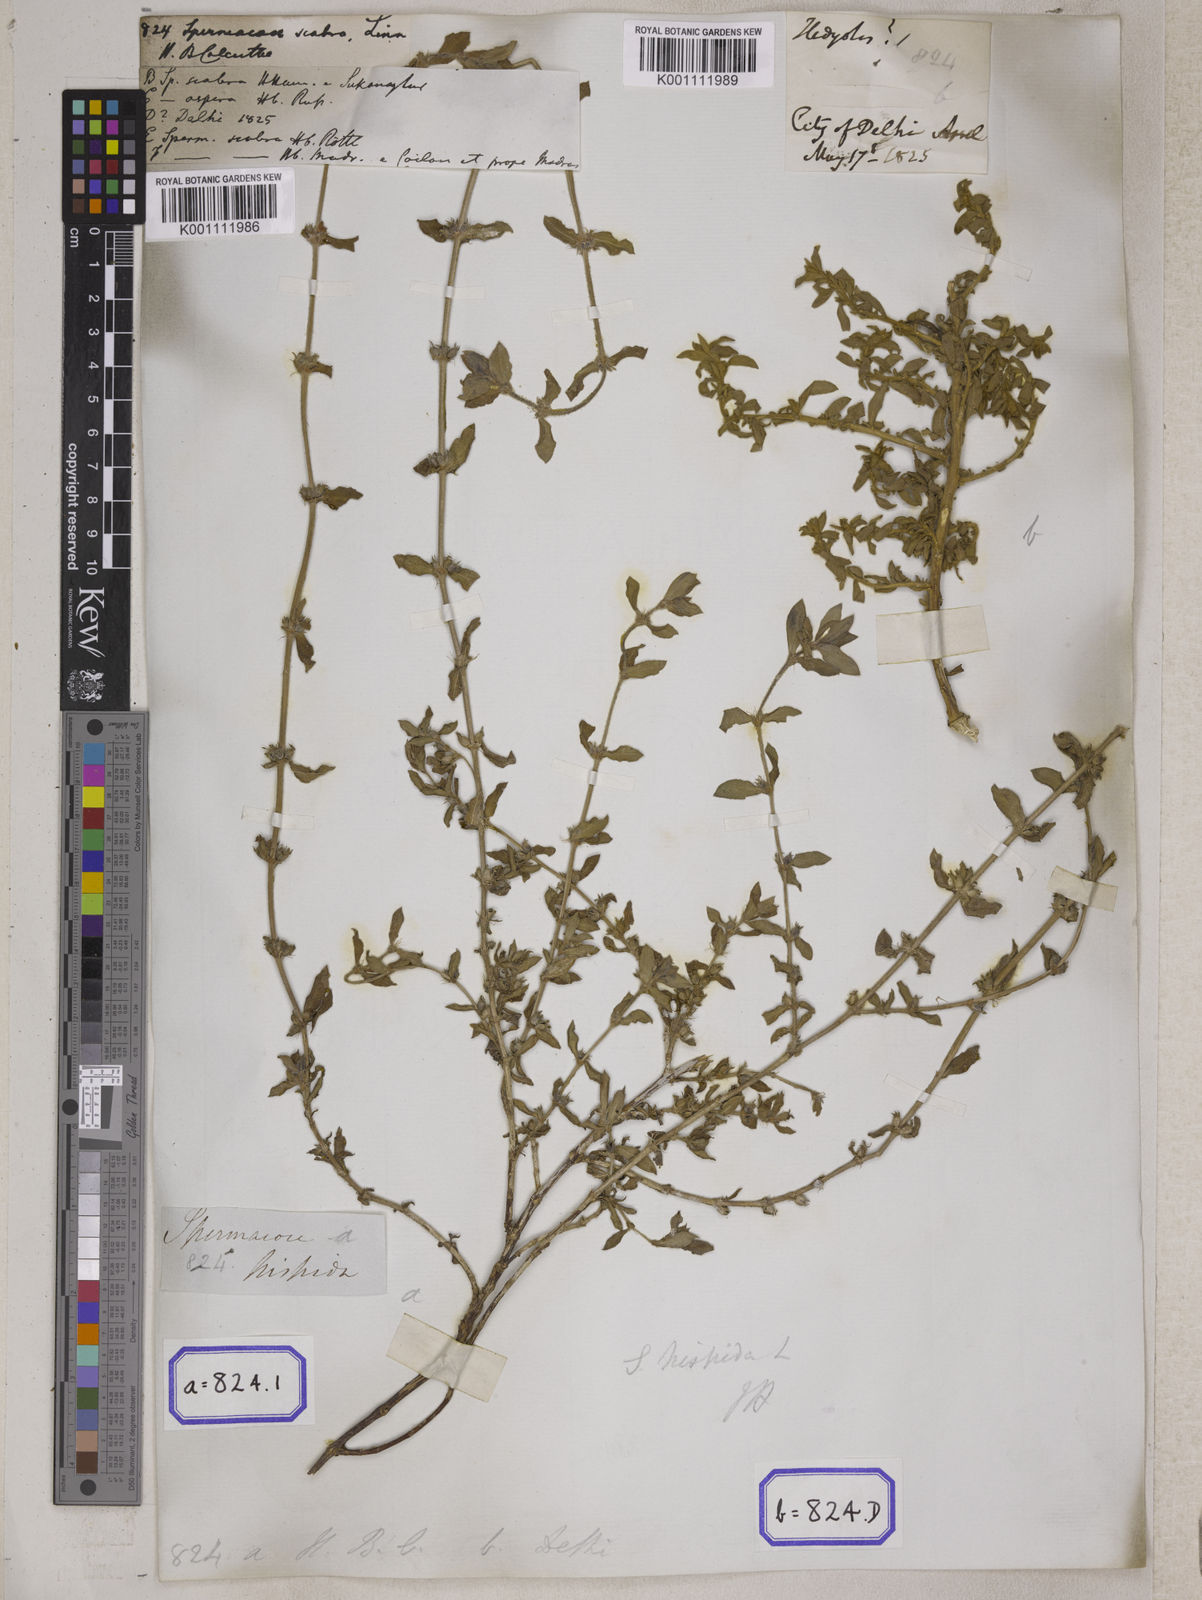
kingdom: Plantae
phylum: Tracheophyta
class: Magnoliopsida
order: Gentianales
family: Rubiaceae
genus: Spermacoce
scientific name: Spermacoce
